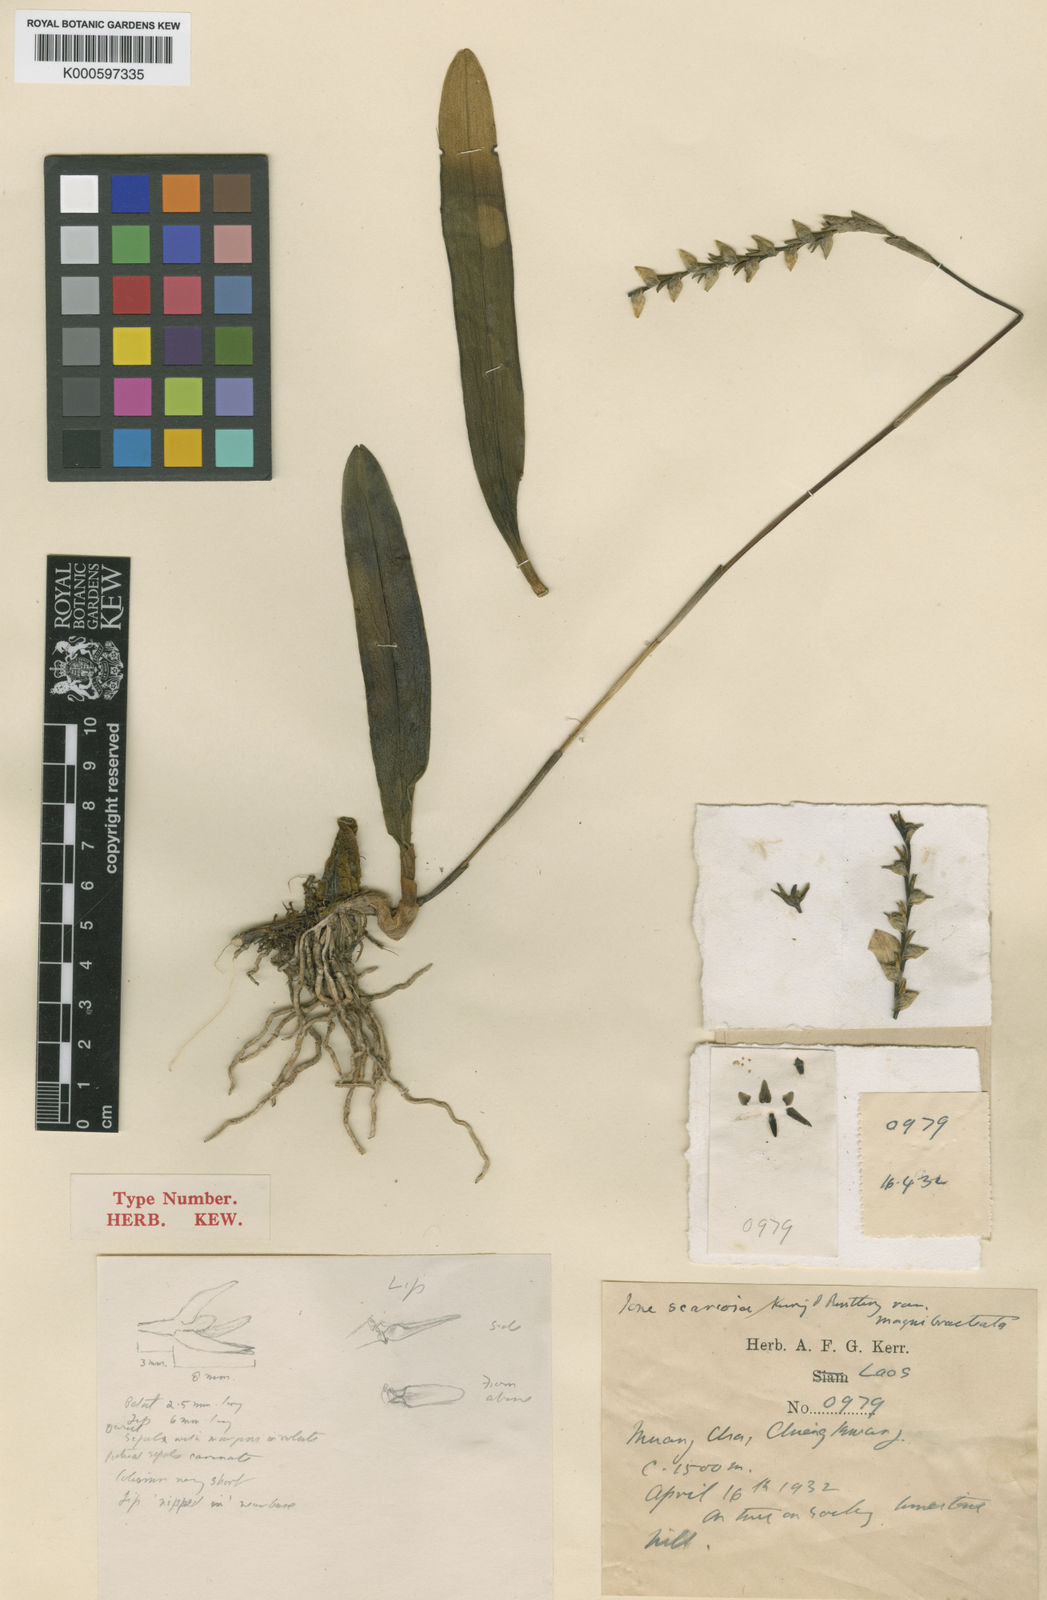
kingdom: Plantae
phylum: Tracheophyta
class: Liliopsida
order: Asparagales
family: Orchidaceae
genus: Bulbophyllum
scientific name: Bulbophyllum reptans
